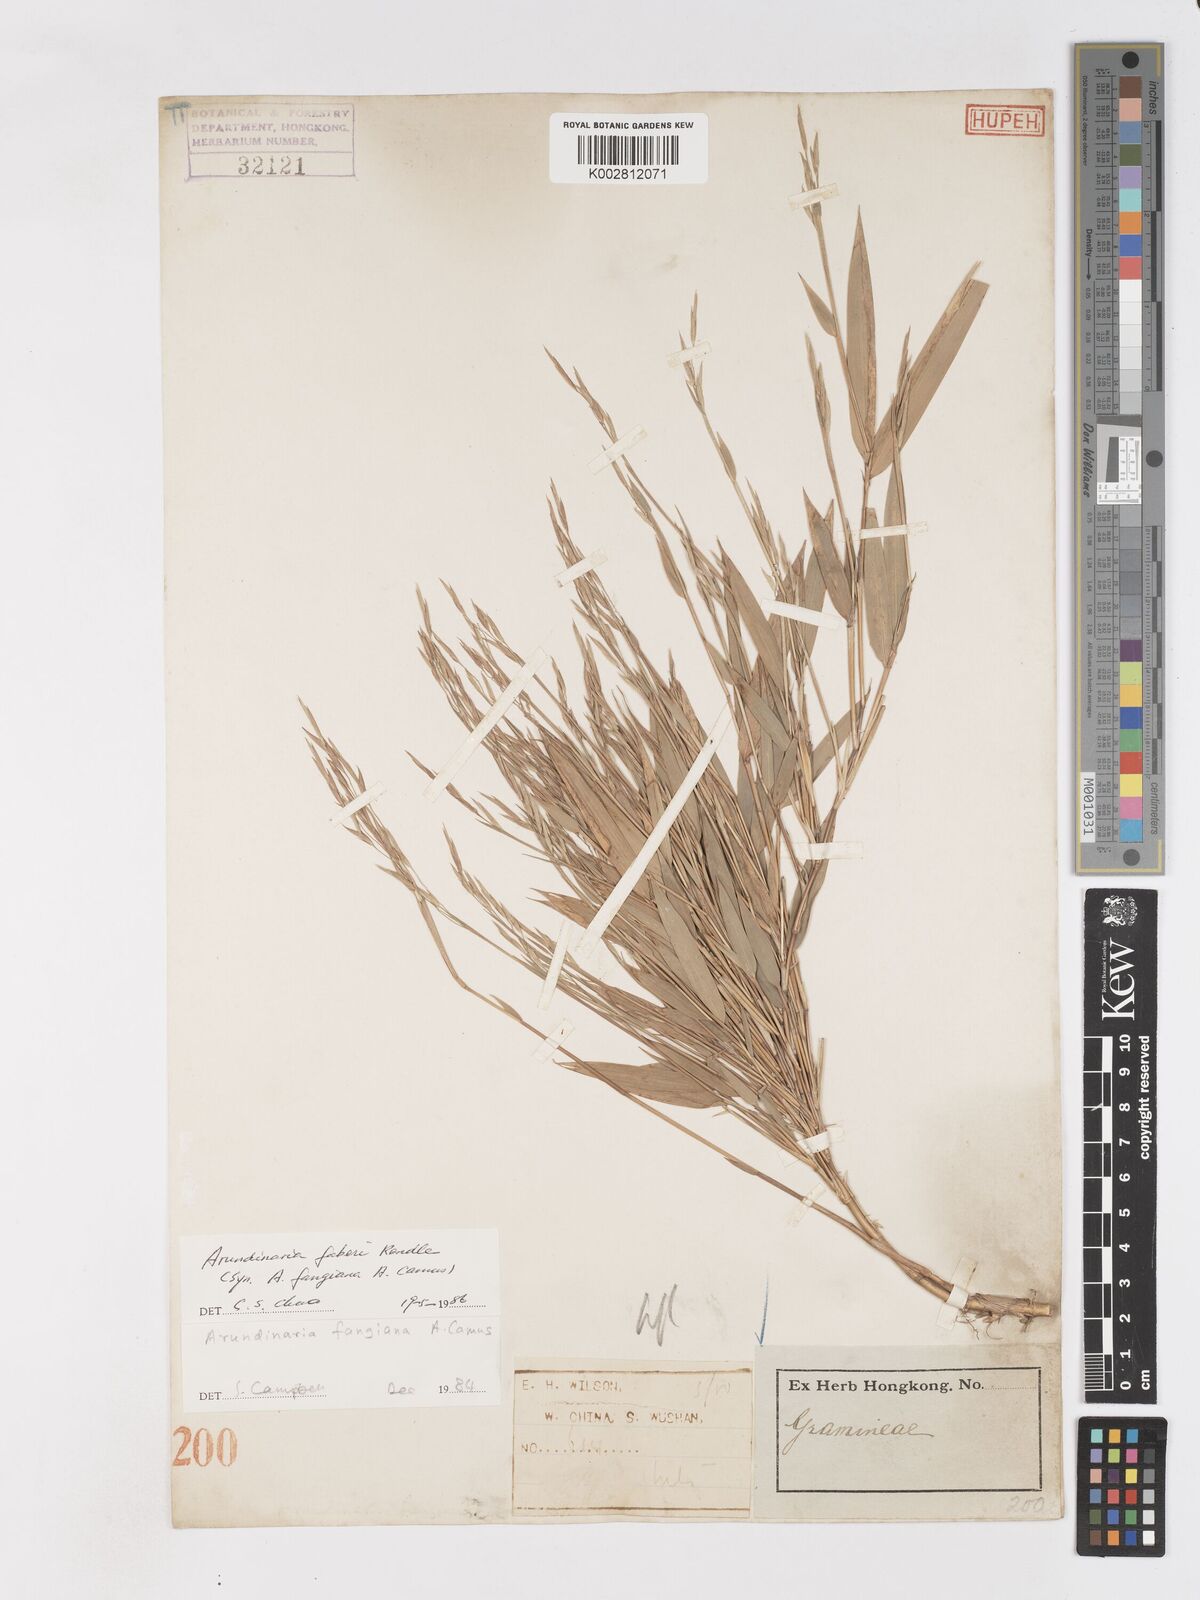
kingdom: Plantae
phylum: Tracheophyta
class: Liliopsida
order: Poales
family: Poaceae
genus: Sarocalamus
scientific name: Sarocalamus faberi
